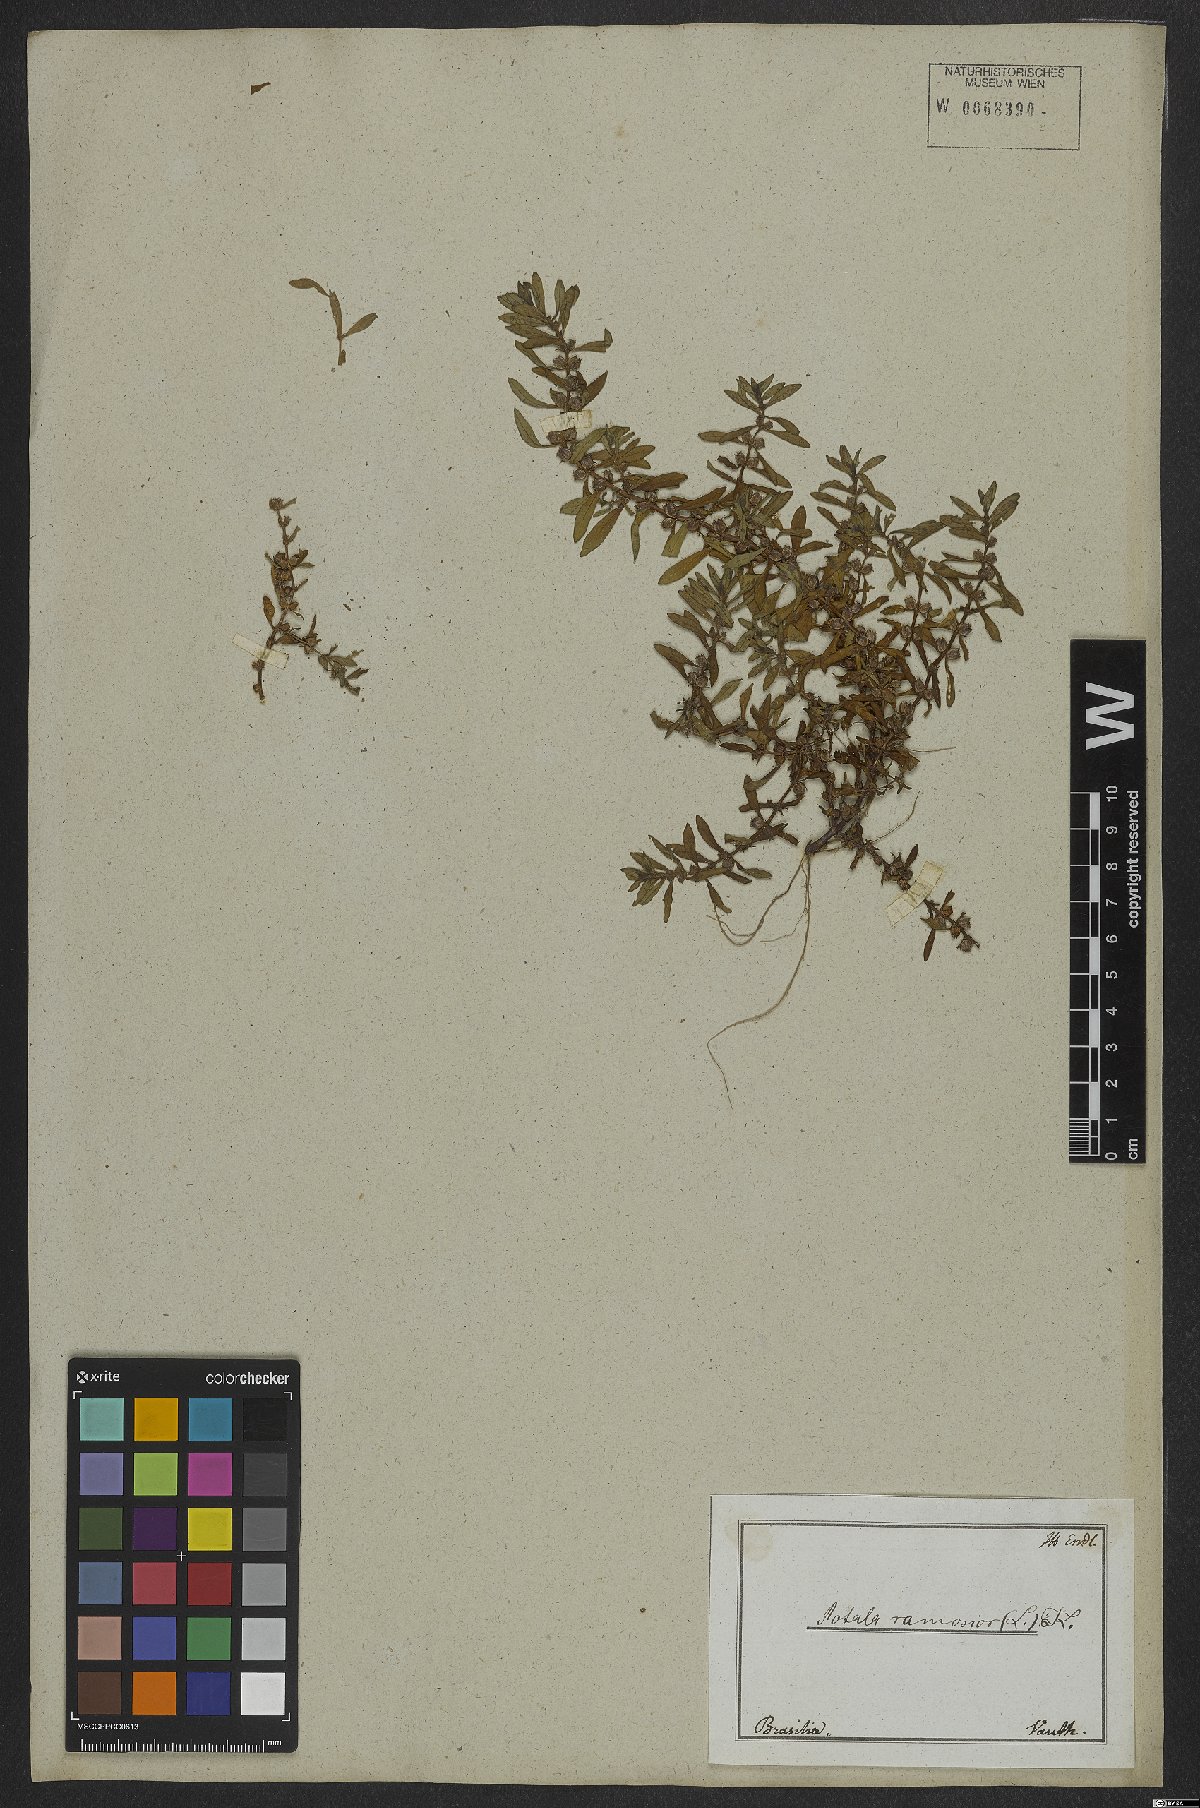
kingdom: Plantae
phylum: Tracheophyta
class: Magnoliopsida
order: Myrtales
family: Lythraceae
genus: Rotala
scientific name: Rotala ramosior
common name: Lowland rotala
